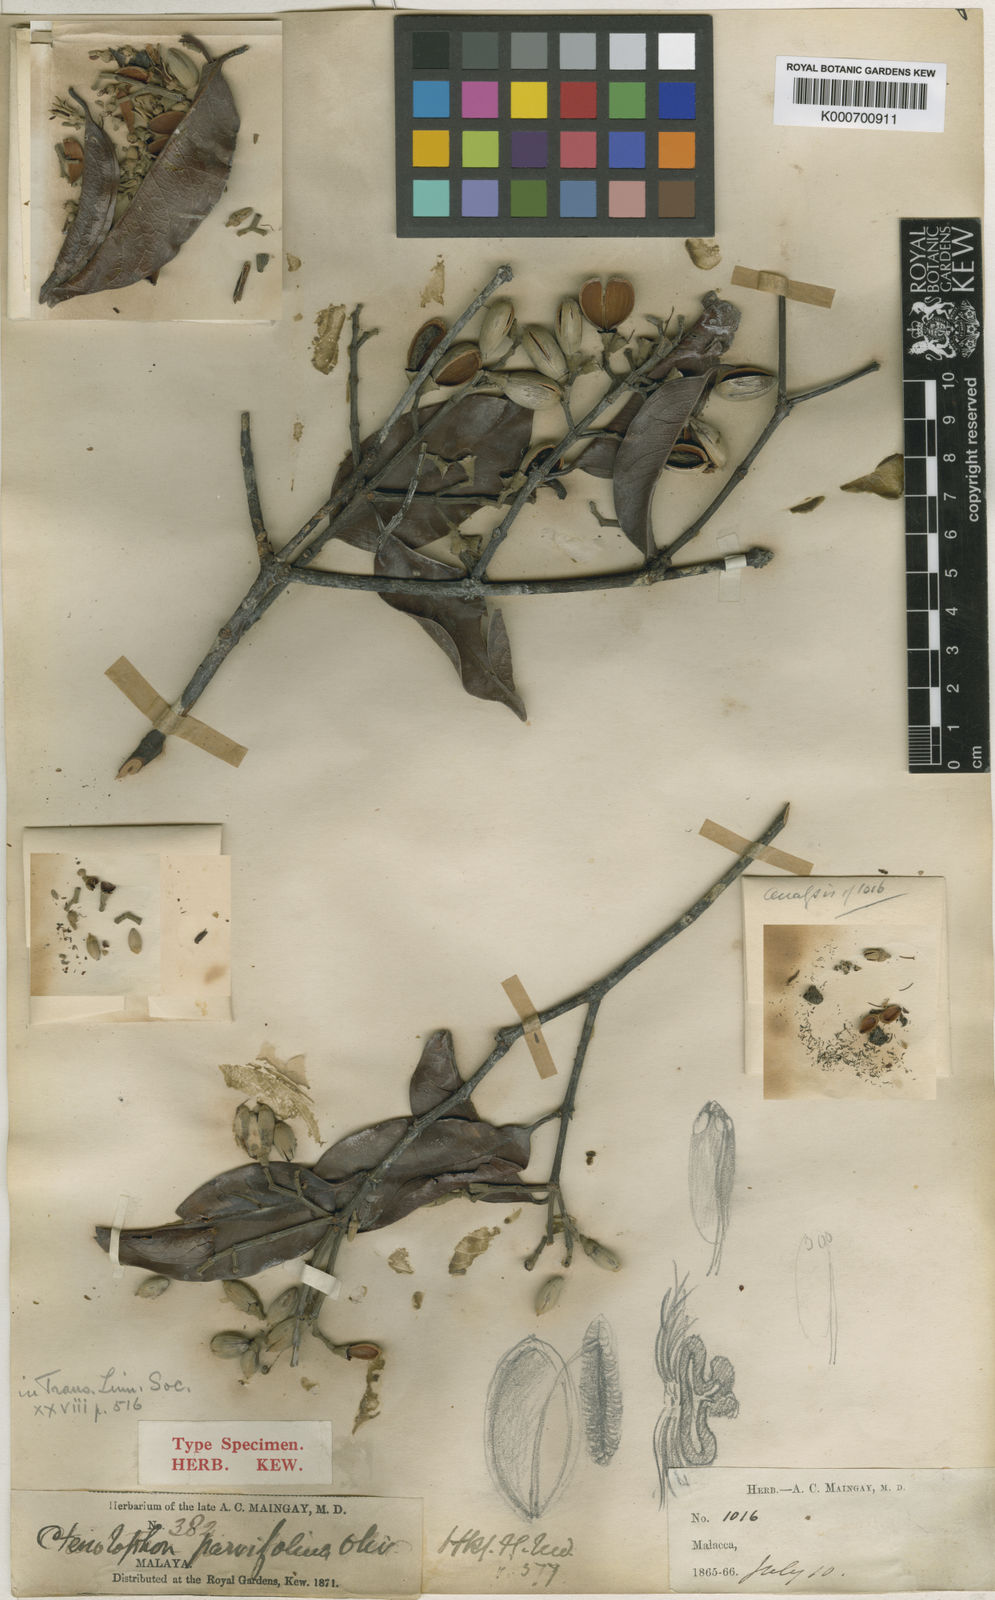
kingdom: Plantae
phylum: Tracheophyta
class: Magnoliopsida
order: Malpighiales
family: Ctenolophonaceae
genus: Ctenolophon
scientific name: Ctenolophon parvifolius
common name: Mertas
